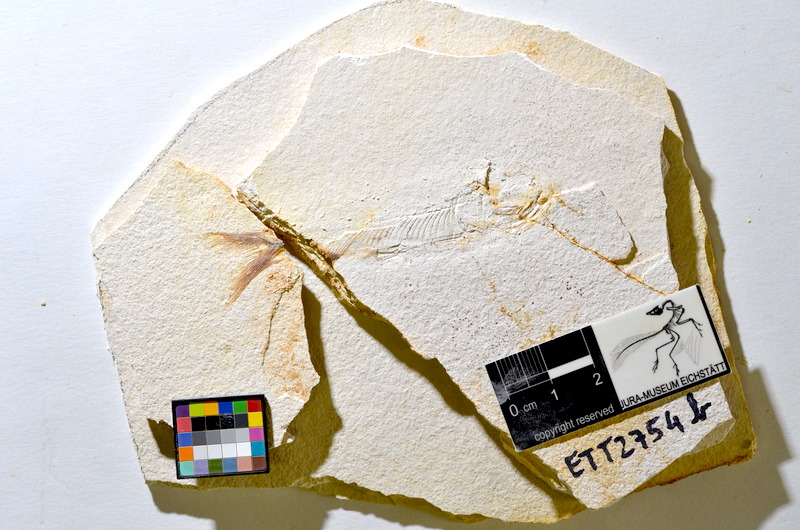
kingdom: Animalia
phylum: Chordata
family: Ascalaboidae
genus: Ebertichthys
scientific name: Ebertichthys ettlingensis
